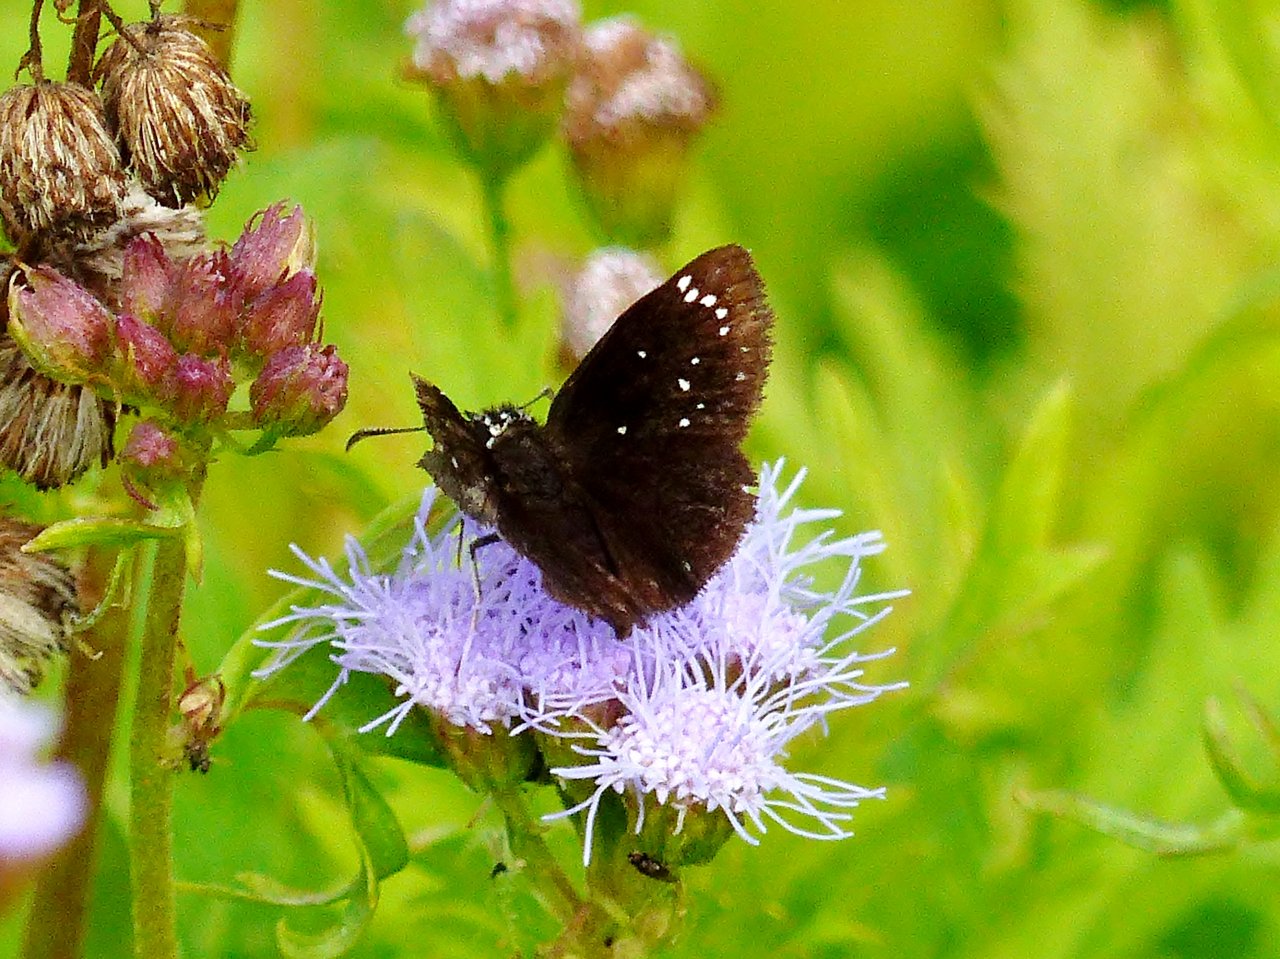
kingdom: Animalia
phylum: Arthropoda
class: Insecta
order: Lepidoptera
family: Hesperiidae
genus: Pholisora
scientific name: Pholisora catullus
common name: Common Sootywing
